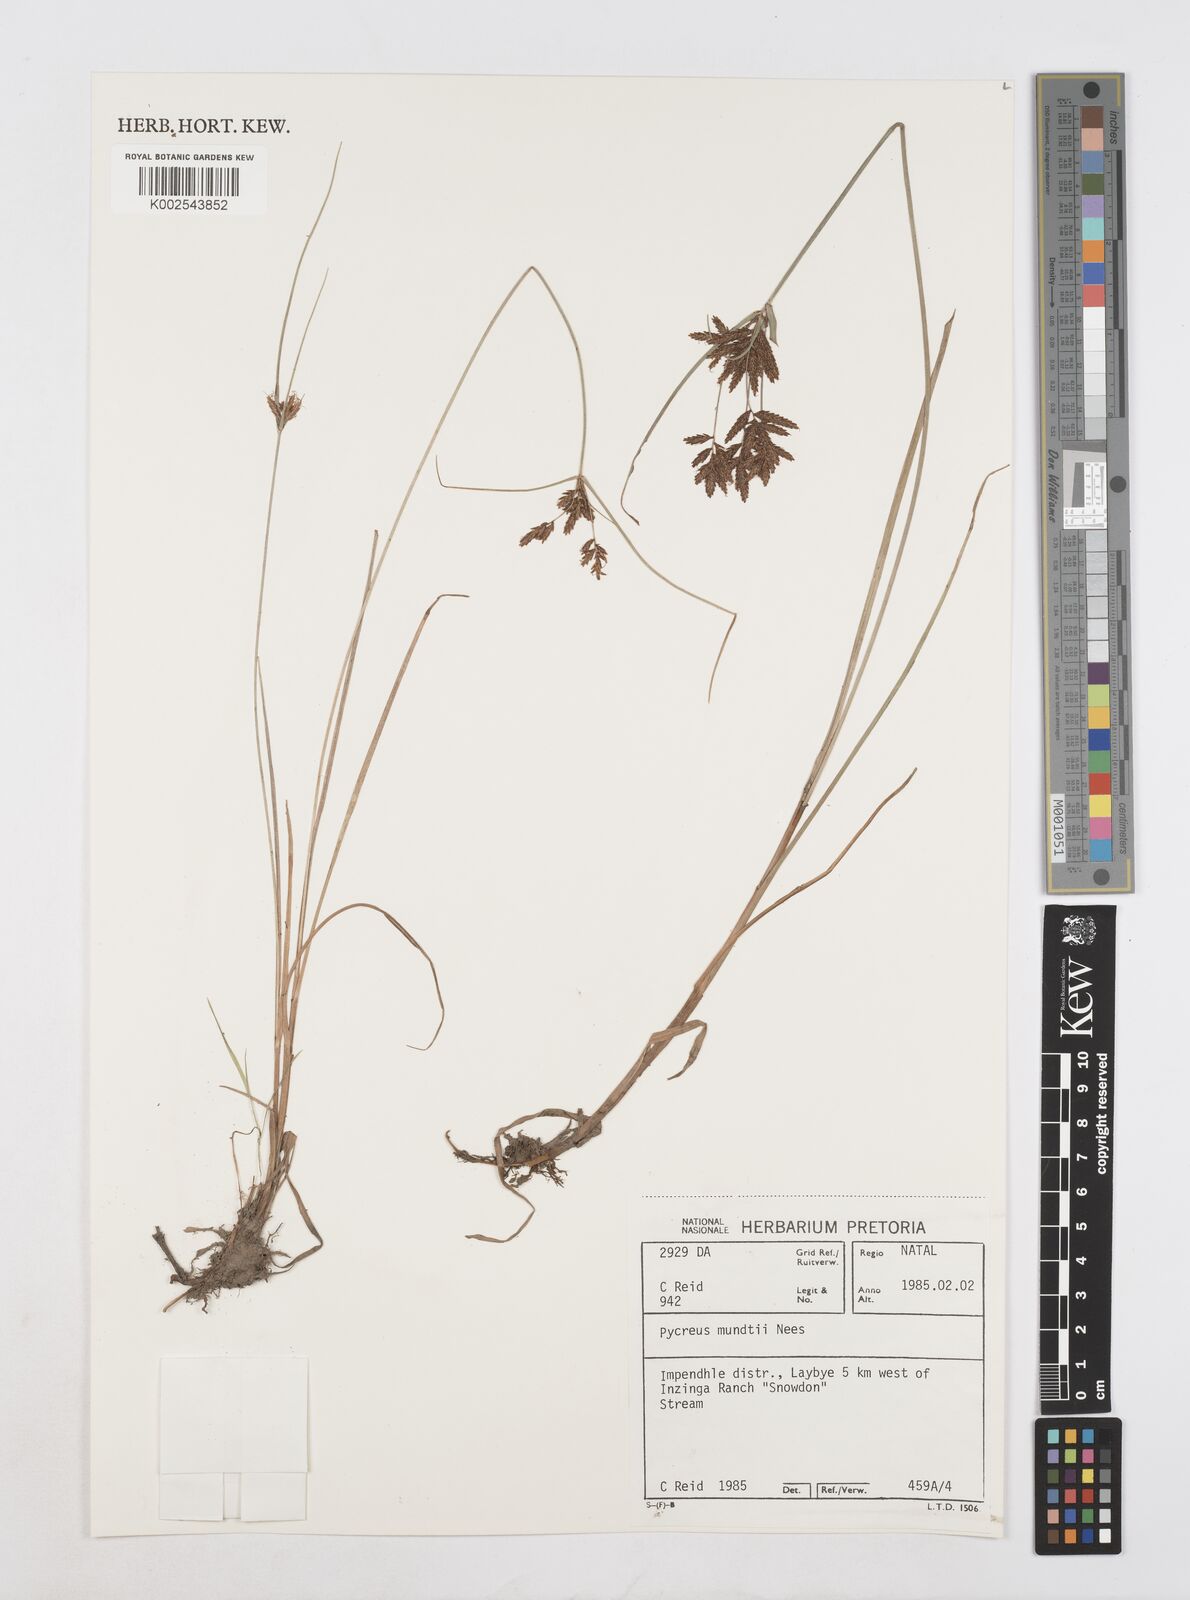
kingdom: Plantae
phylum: Tracheophyta
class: Liliopsida
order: Poales
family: Cyperaceae
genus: Cyperus
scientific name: Cyperus mundii
